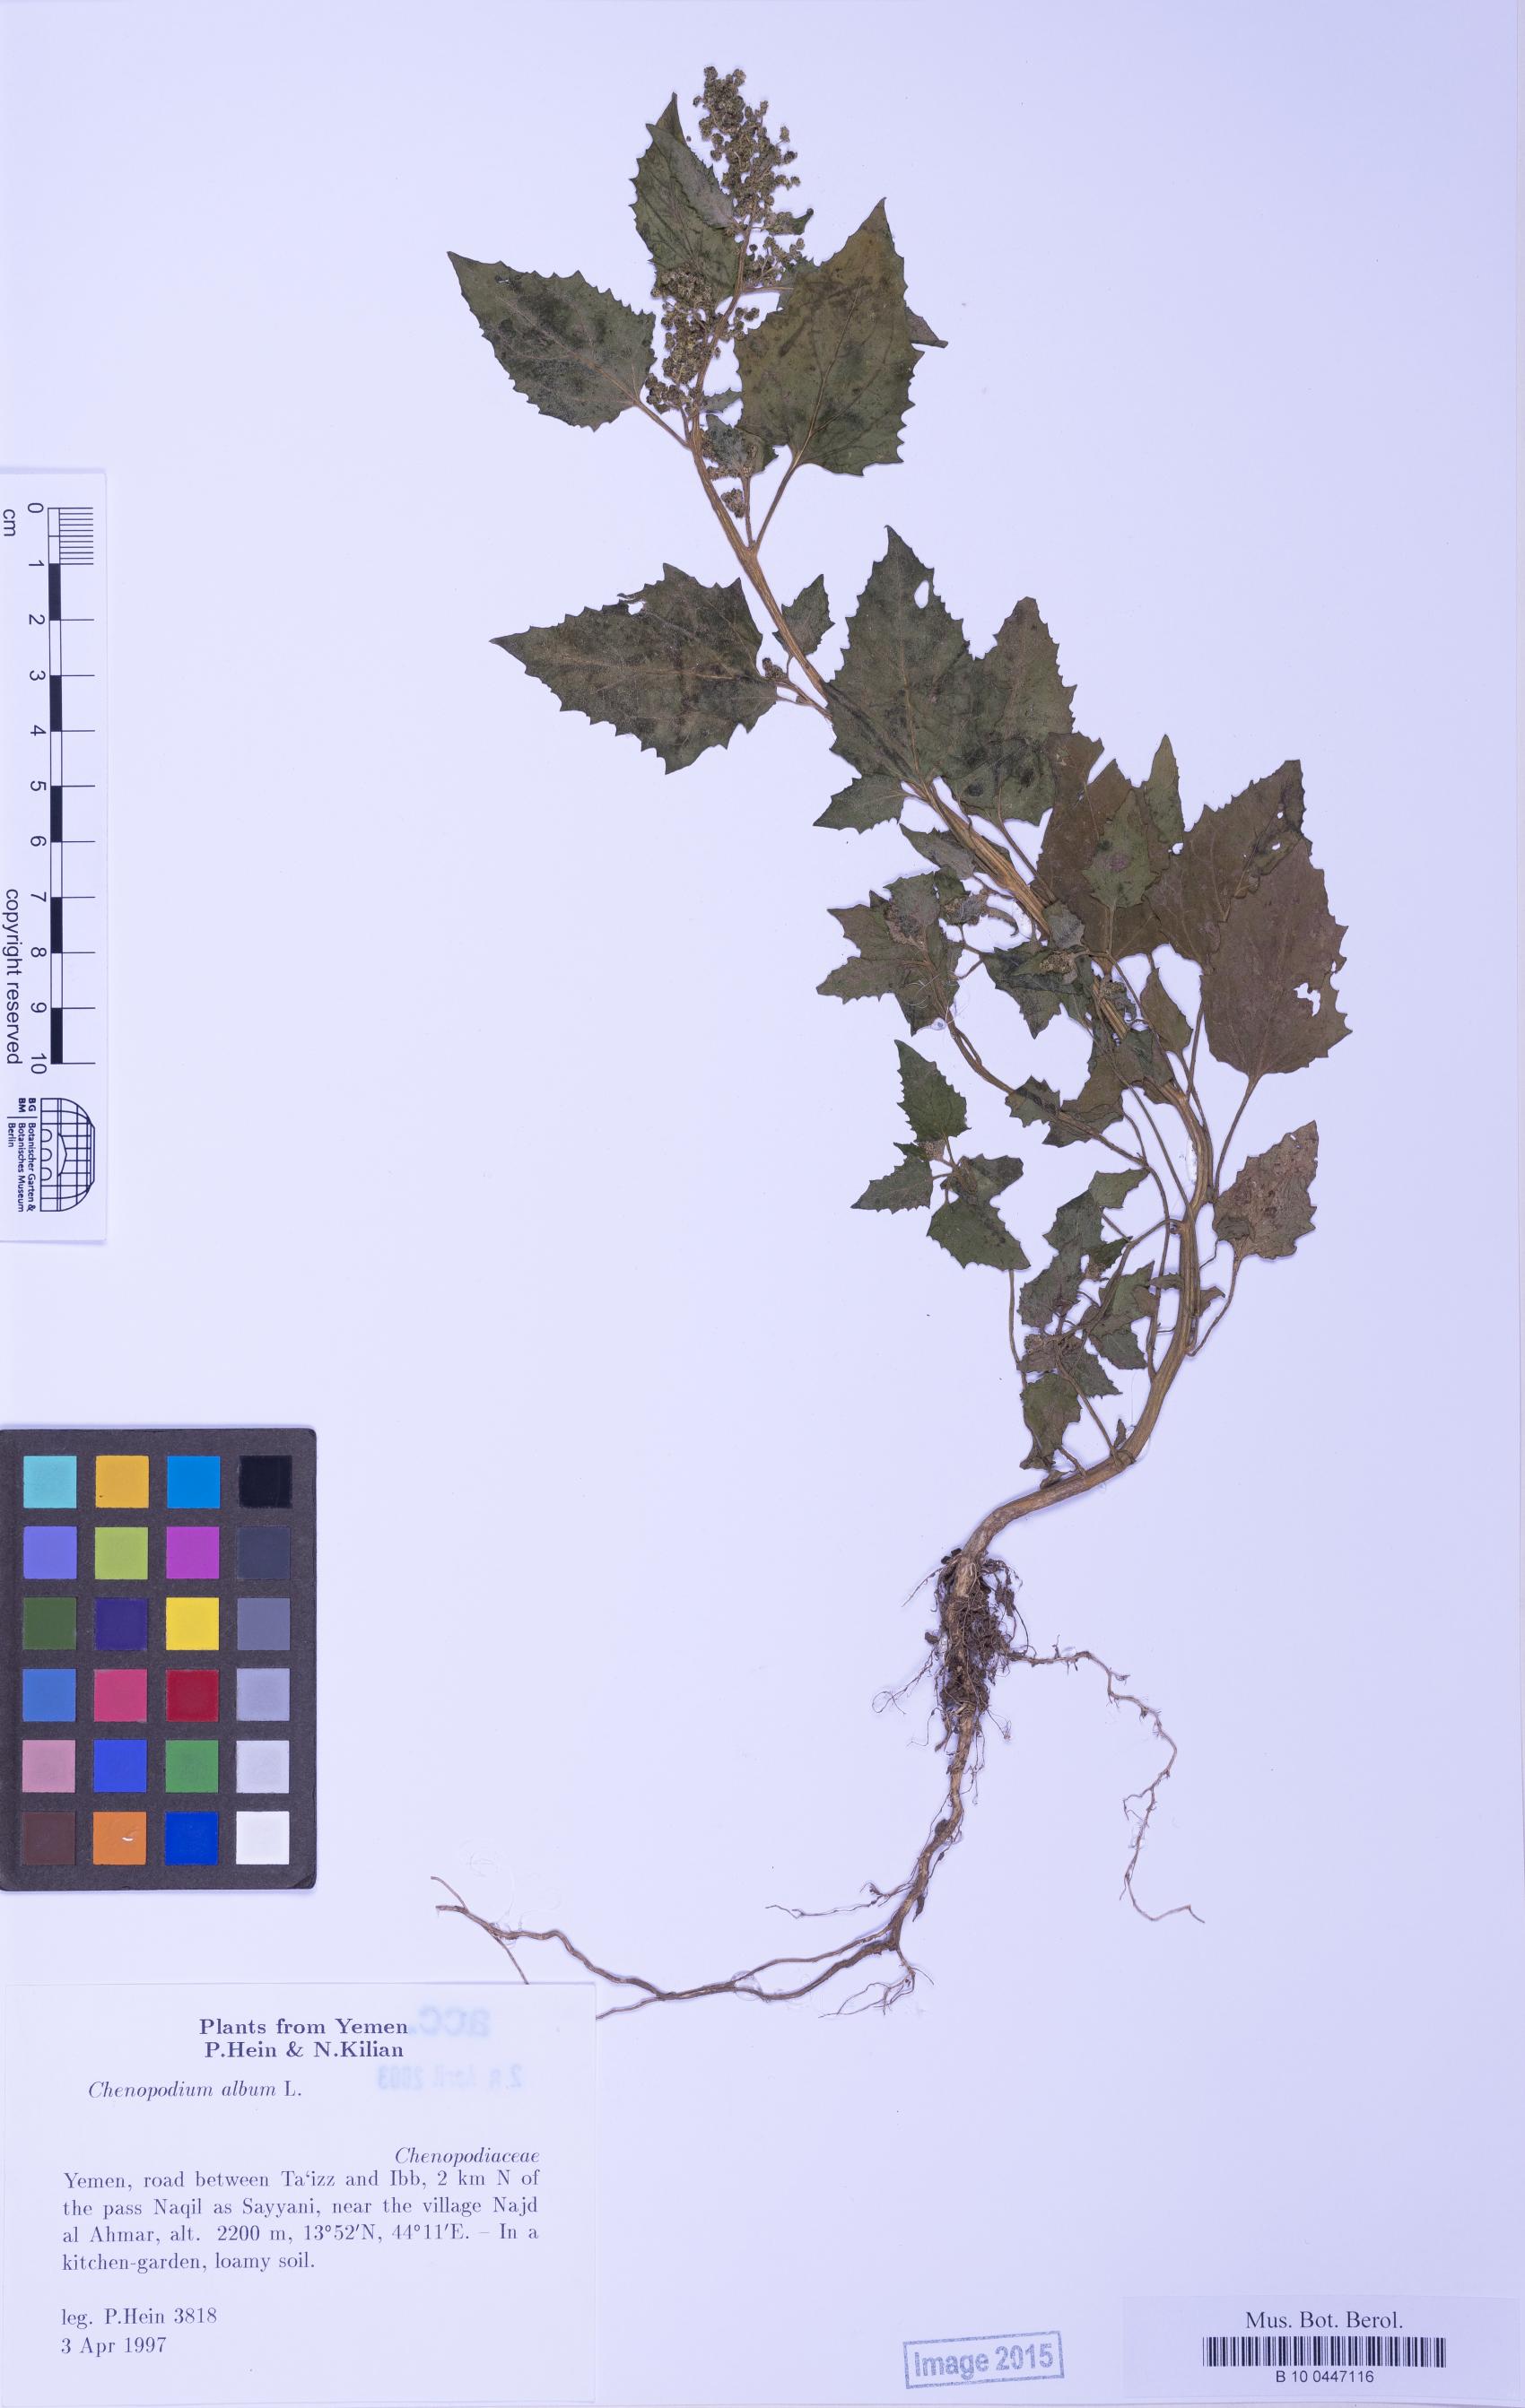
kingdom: Plantae
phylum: Tracheophyta
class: Magnoliopsida
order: Caryophyllales
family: Amaranthaceae
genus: Chenopodiastrum
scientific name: Chenopodiastrum murale
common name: Sowbane
